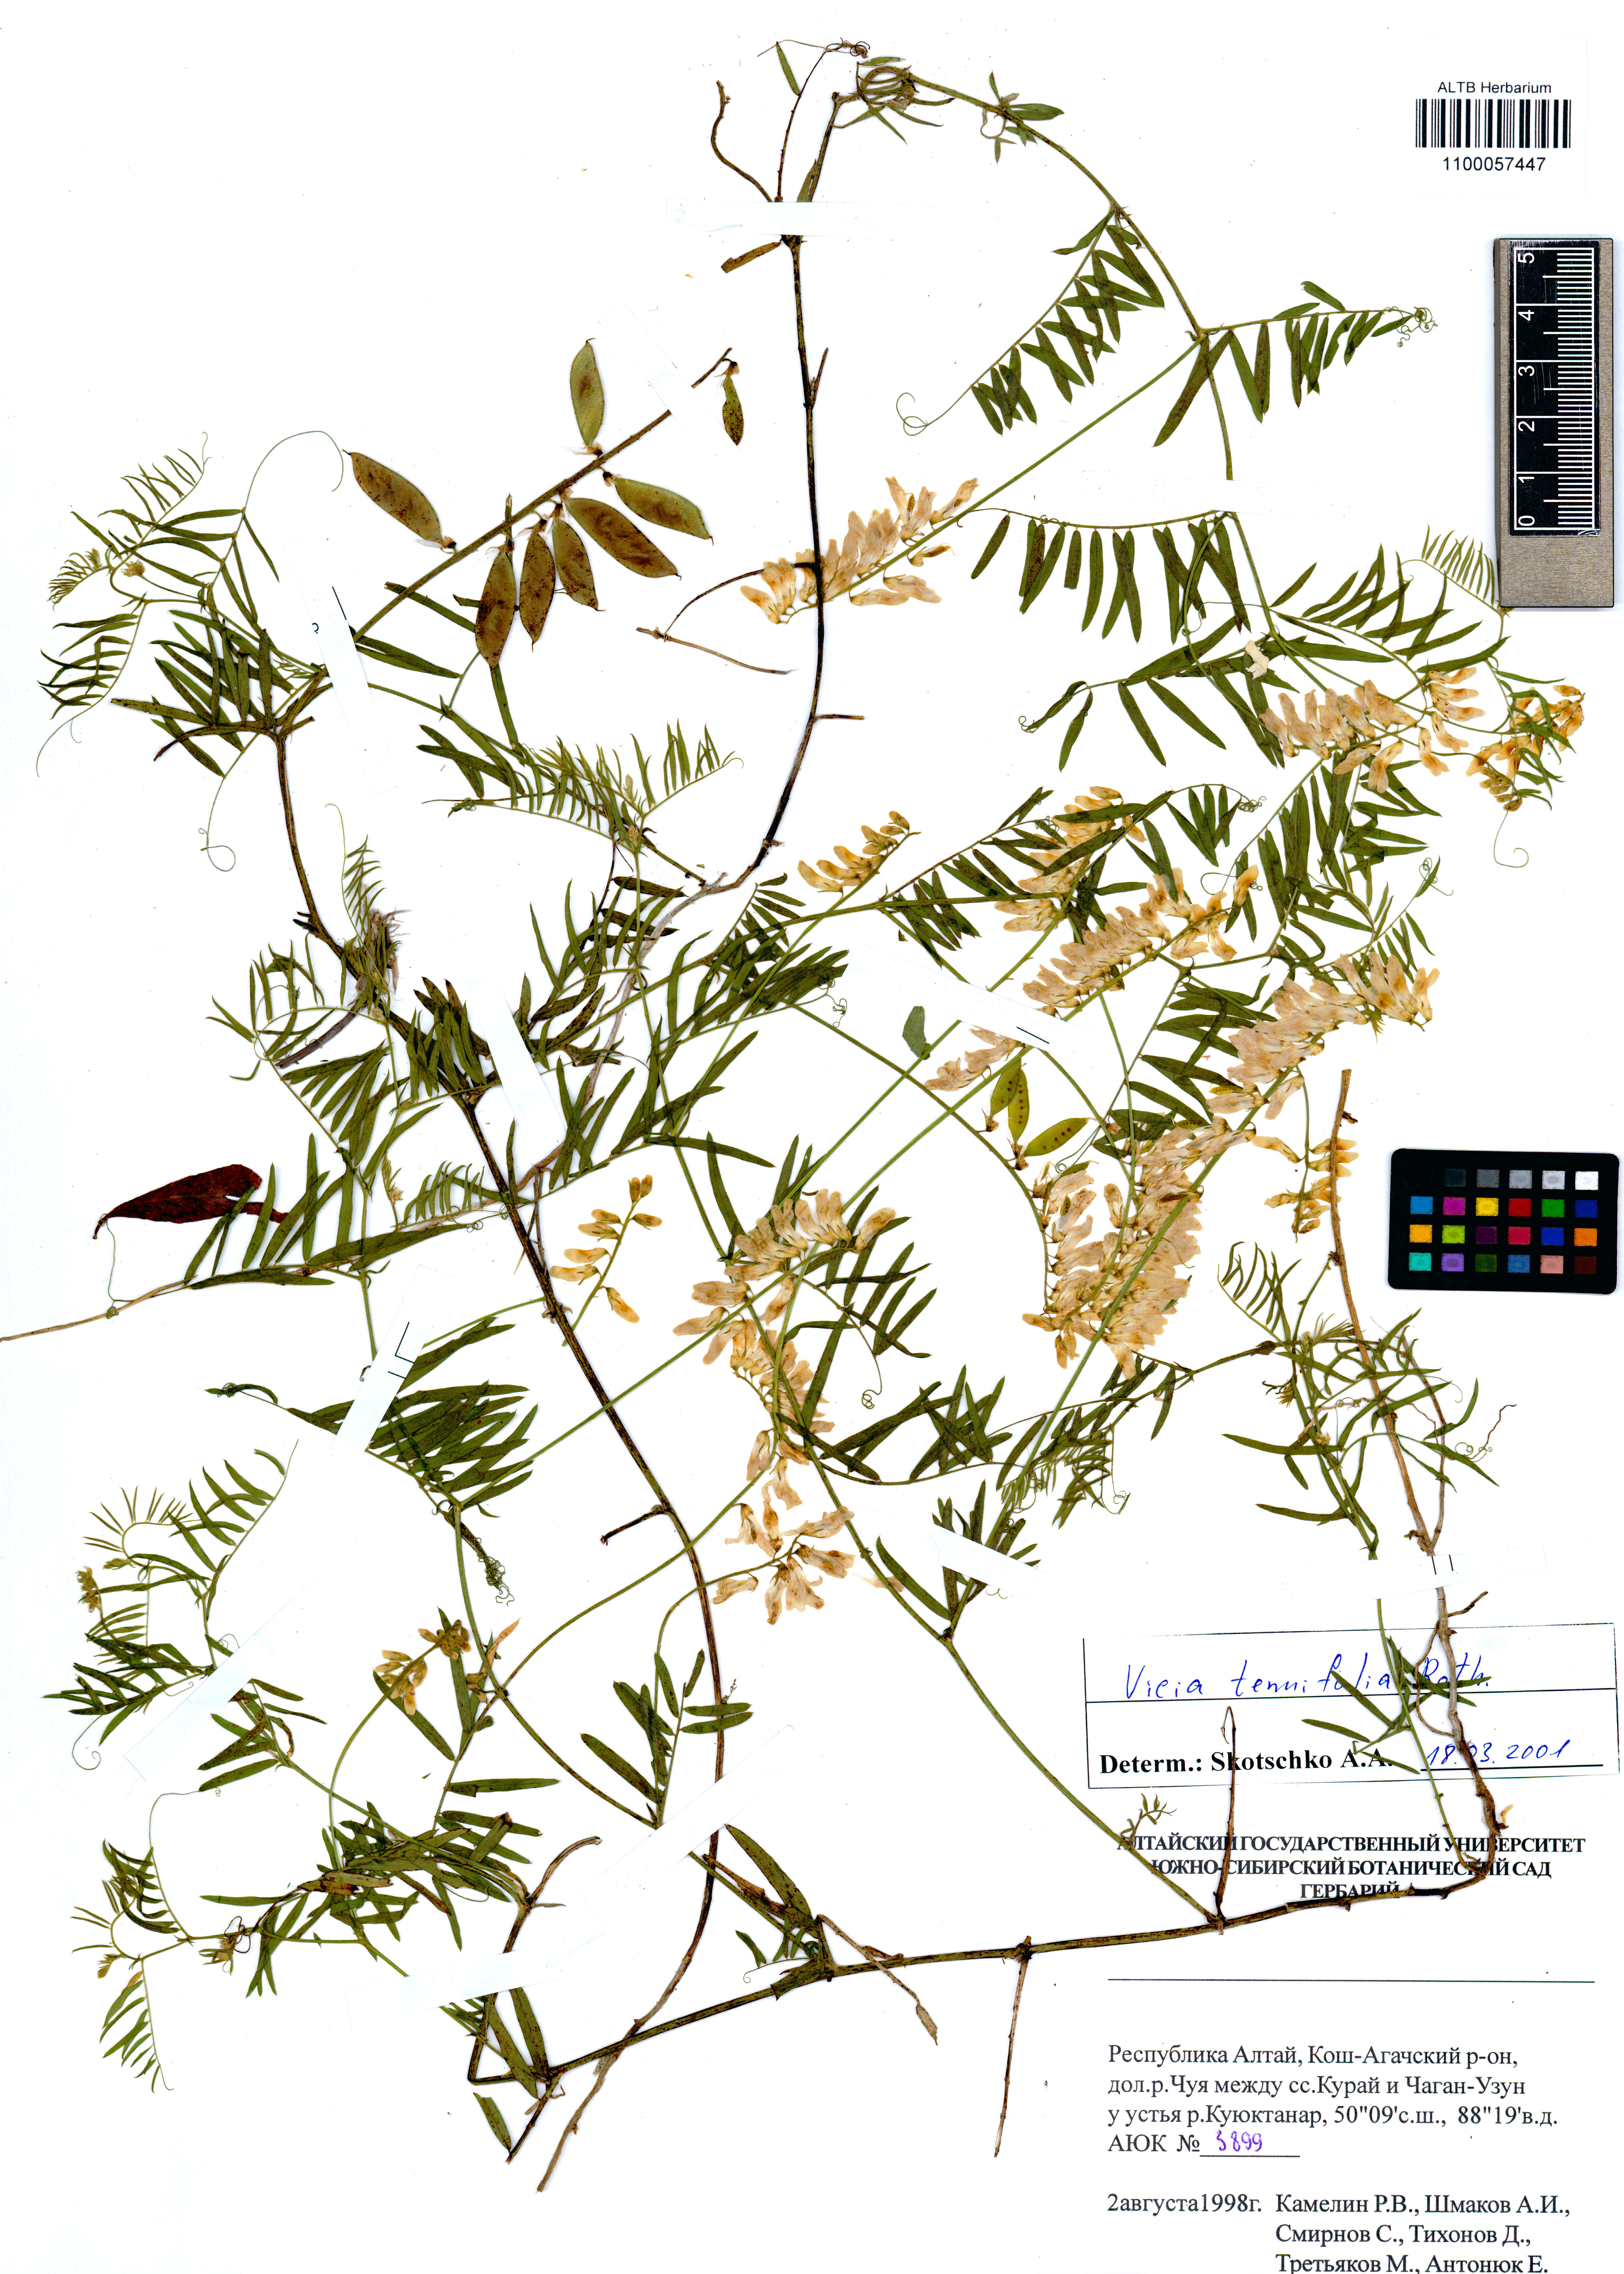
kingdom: Plantae
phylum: Tracheophyta
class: Magnoliopsida
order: Fabales
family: Fabaceae
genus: Vicia
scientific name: Vicia tenuifolia
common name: Fine-leaved vetch
